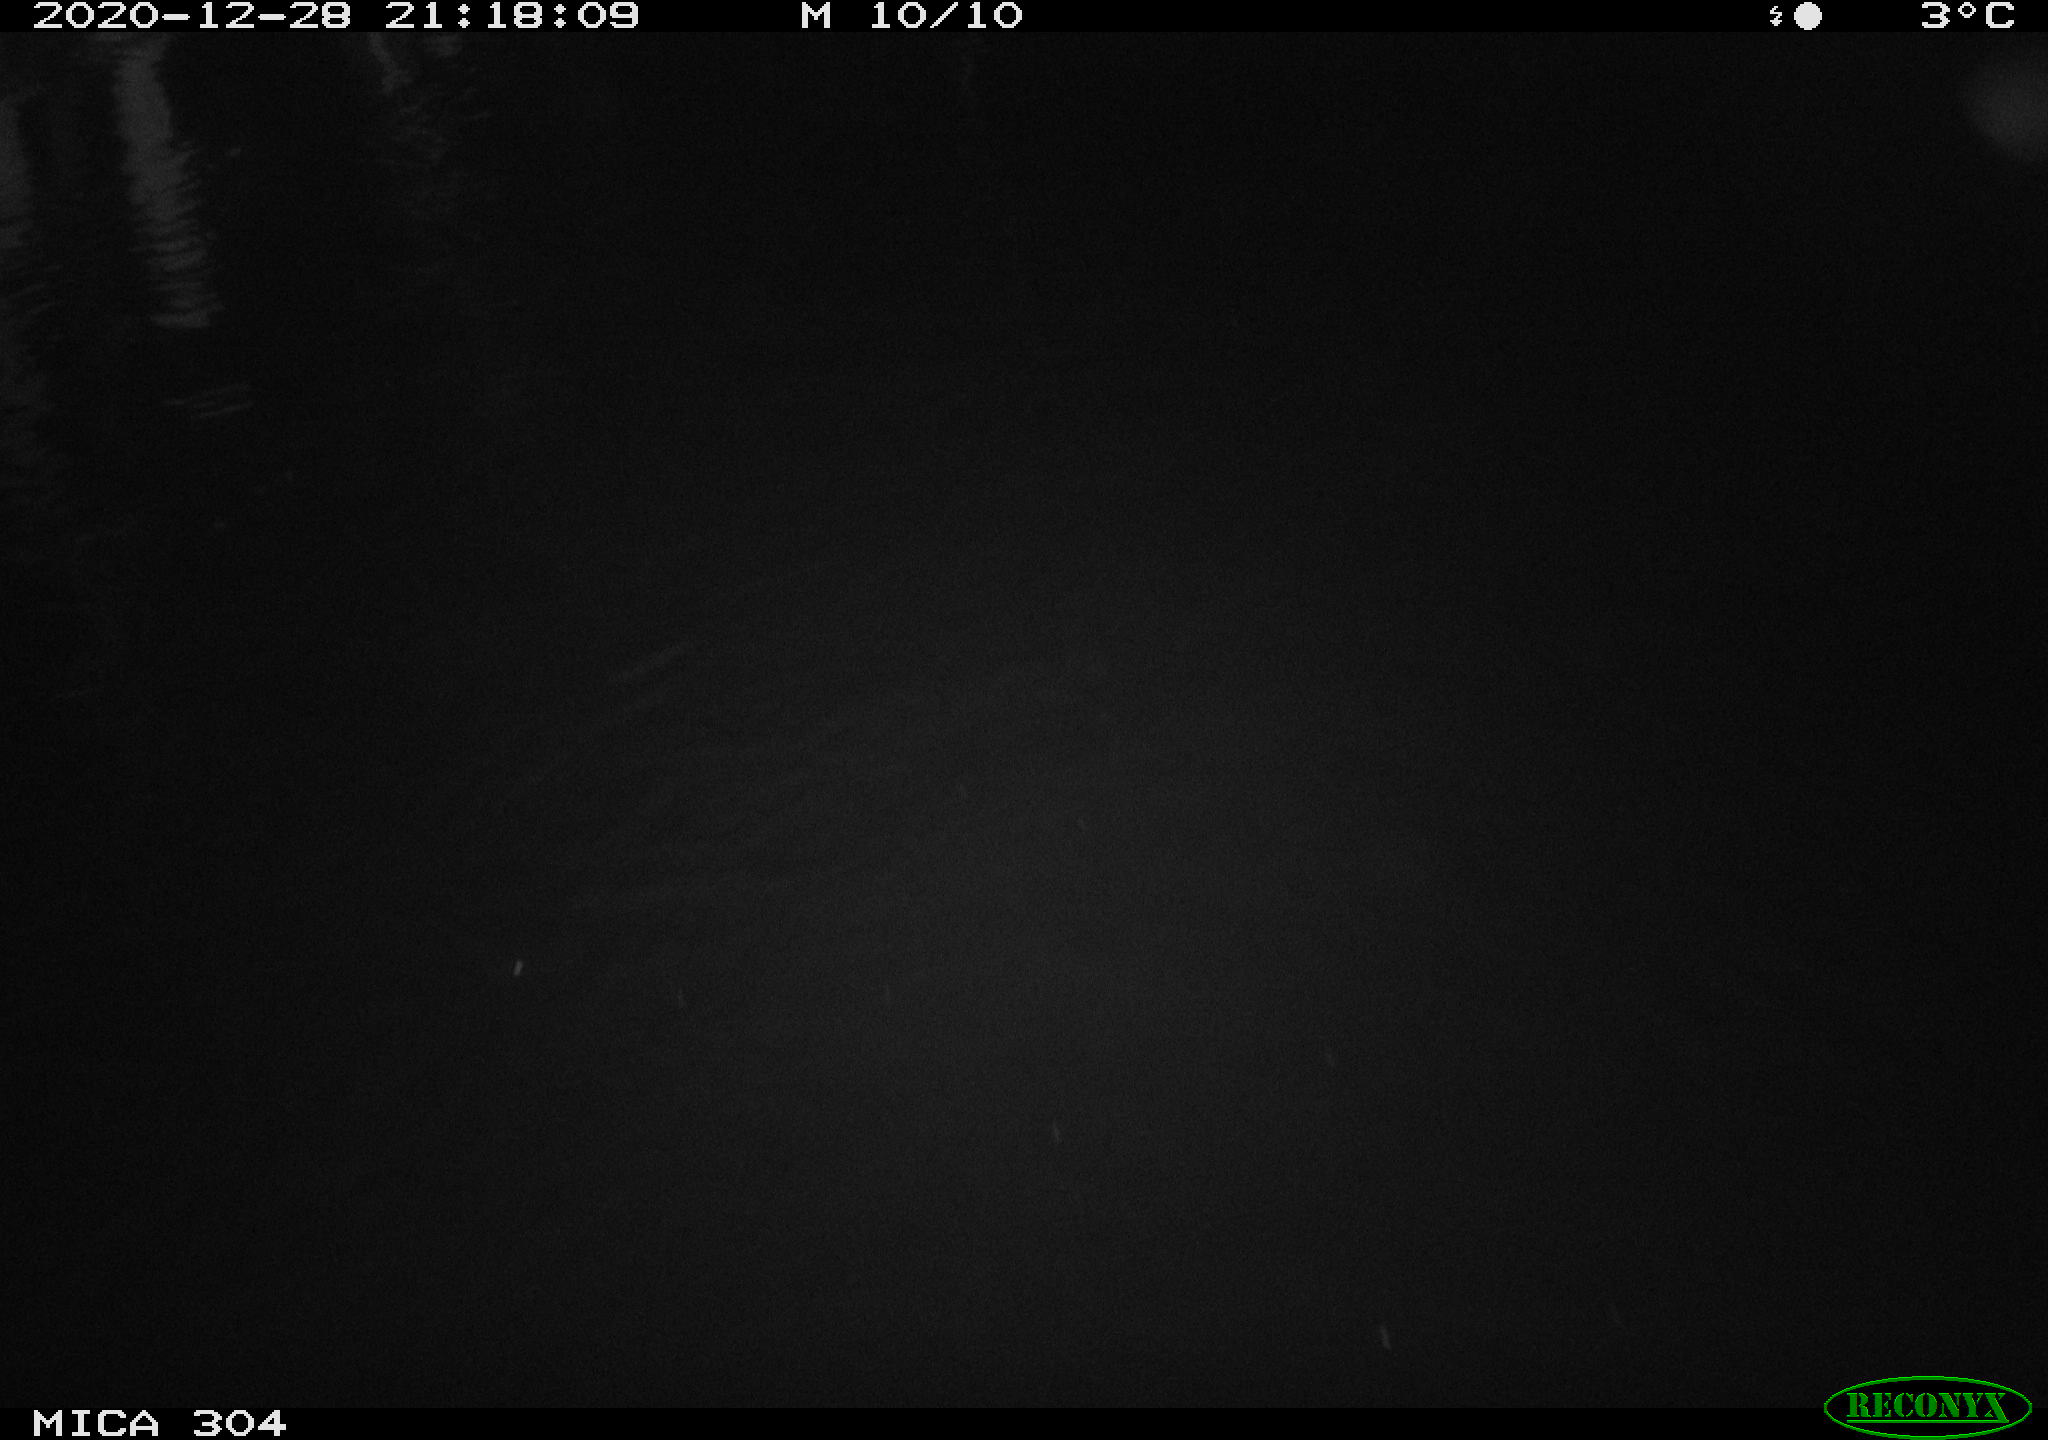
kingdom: Animalia
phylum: Chordata
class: Mammalia
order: Rodentia
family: Muridae
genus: Rattus
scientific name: Rattus norvegicus
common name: Brown rat
